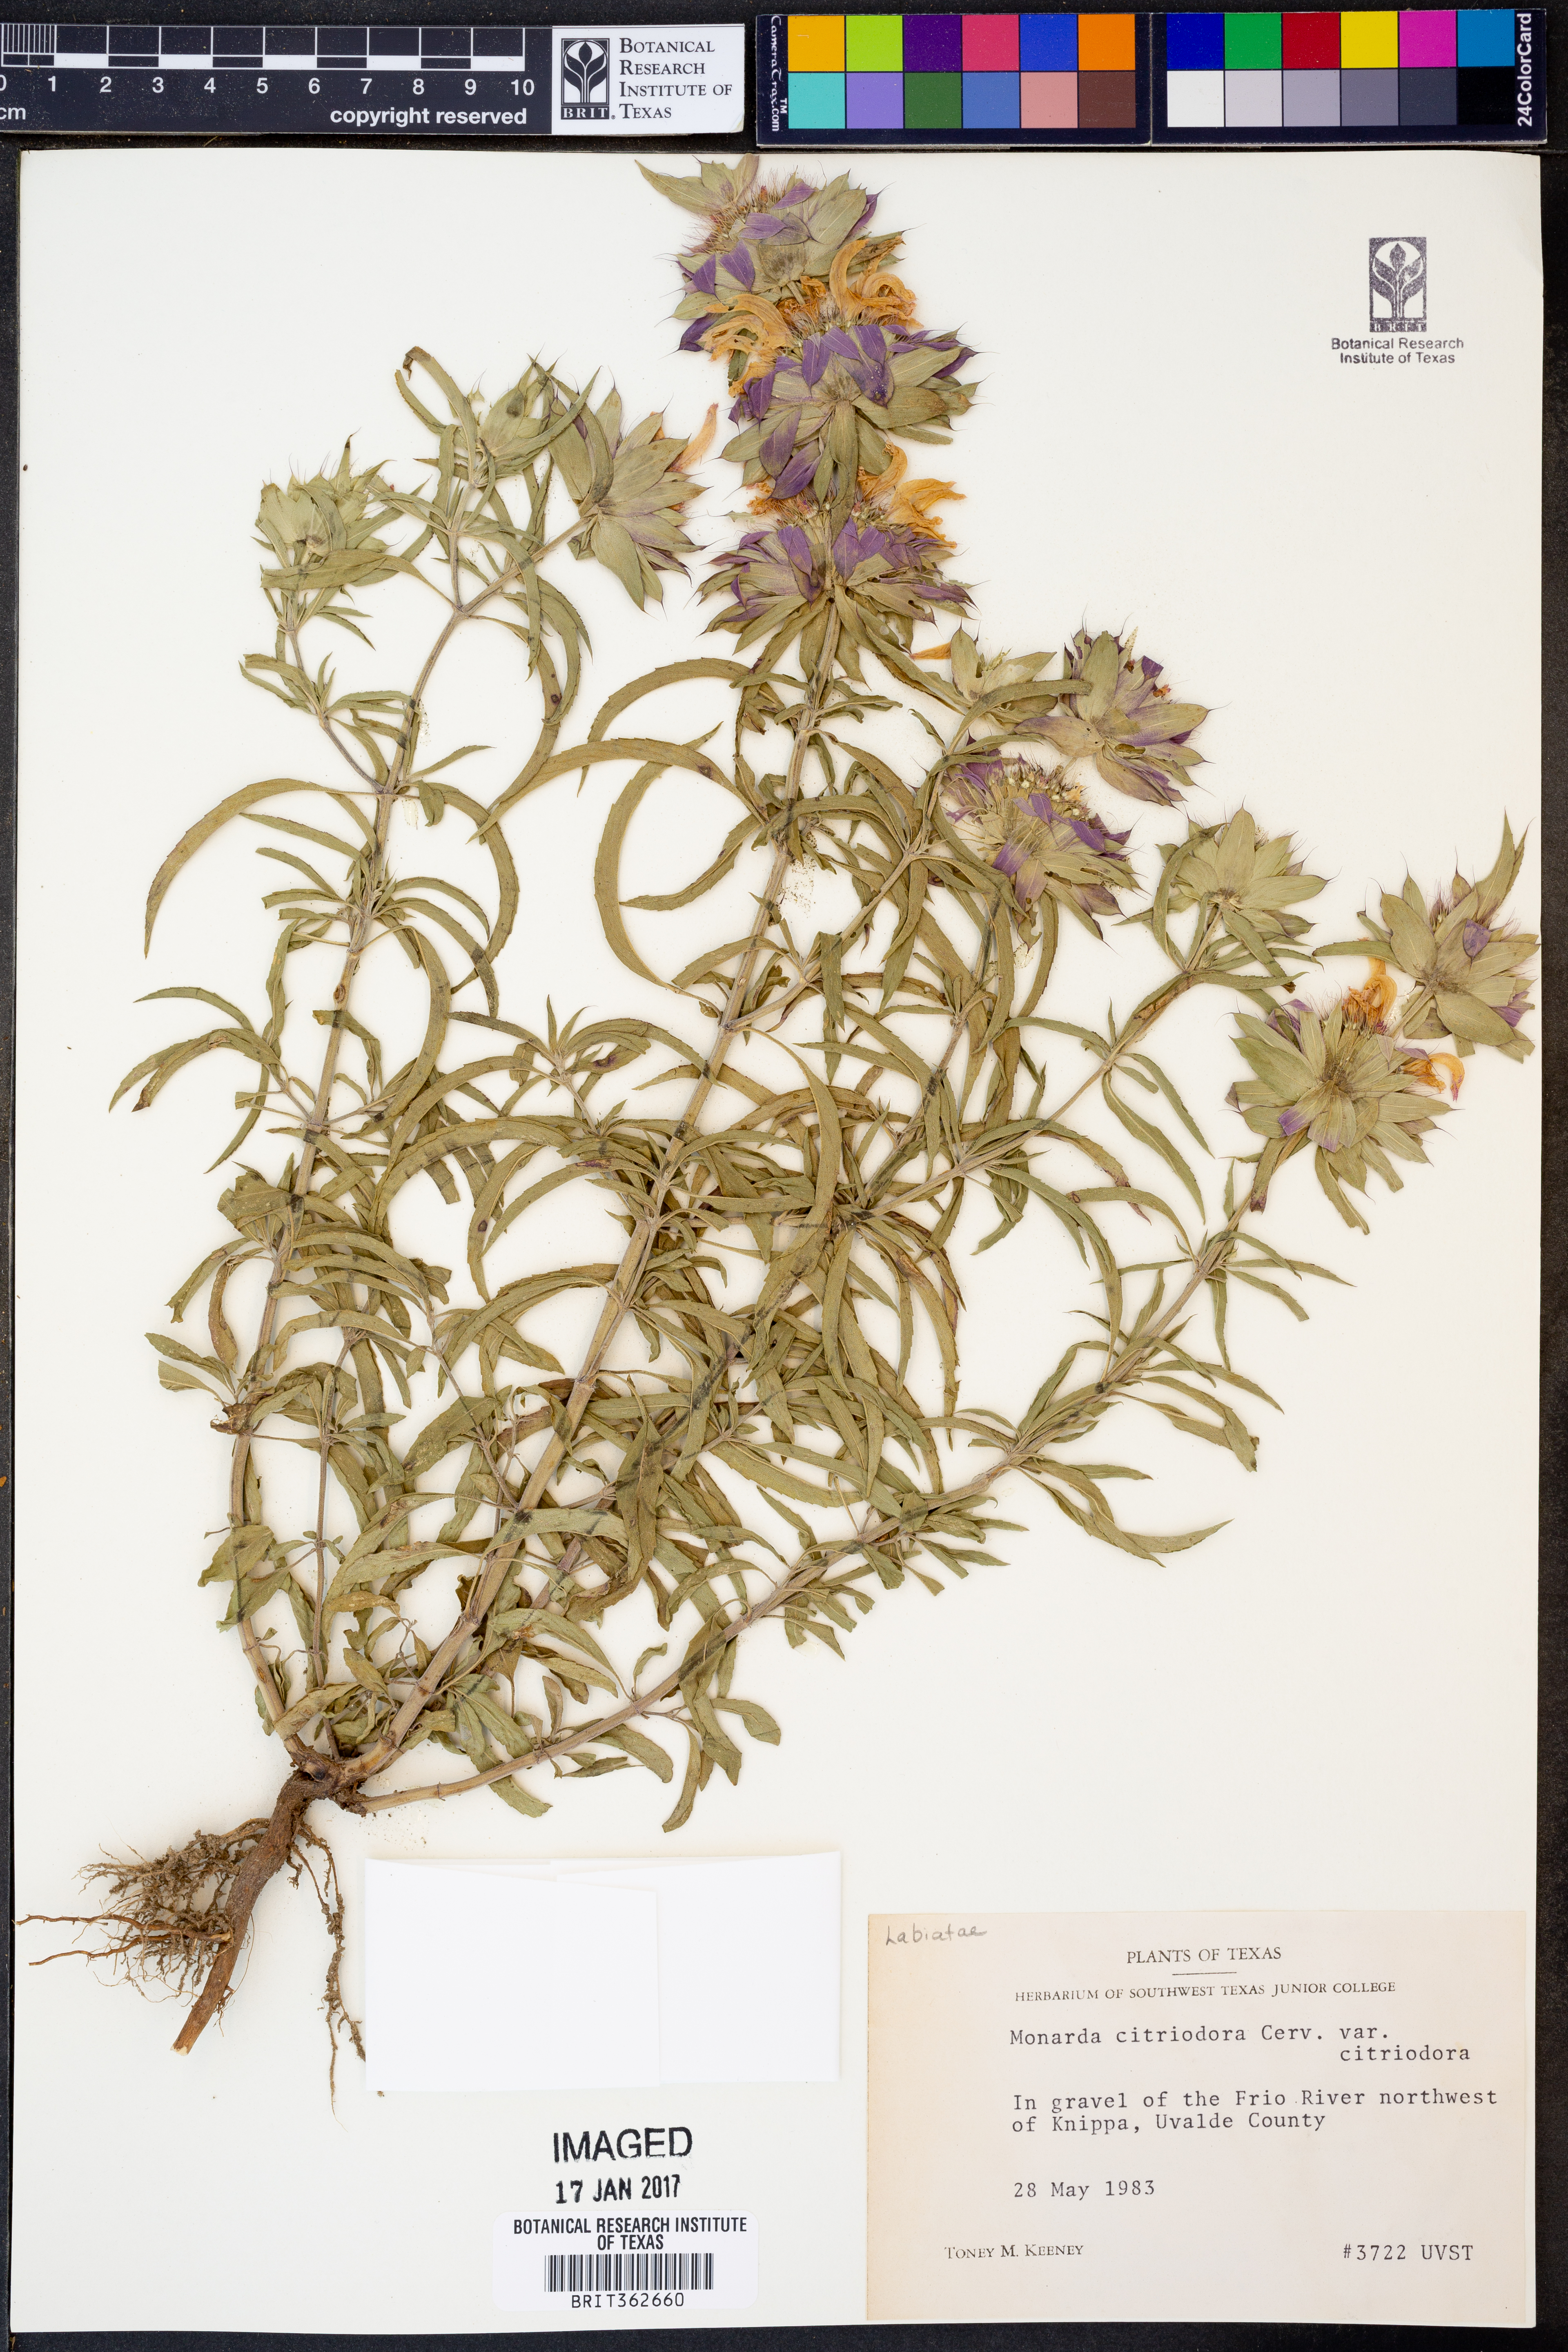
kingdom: Plantae
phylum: Tracheophyta
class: Magnoliopsida
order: Lamiales
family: Lamiaceae
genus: Monarda
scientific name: Monarda citriodora
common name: Lemon beebalm
